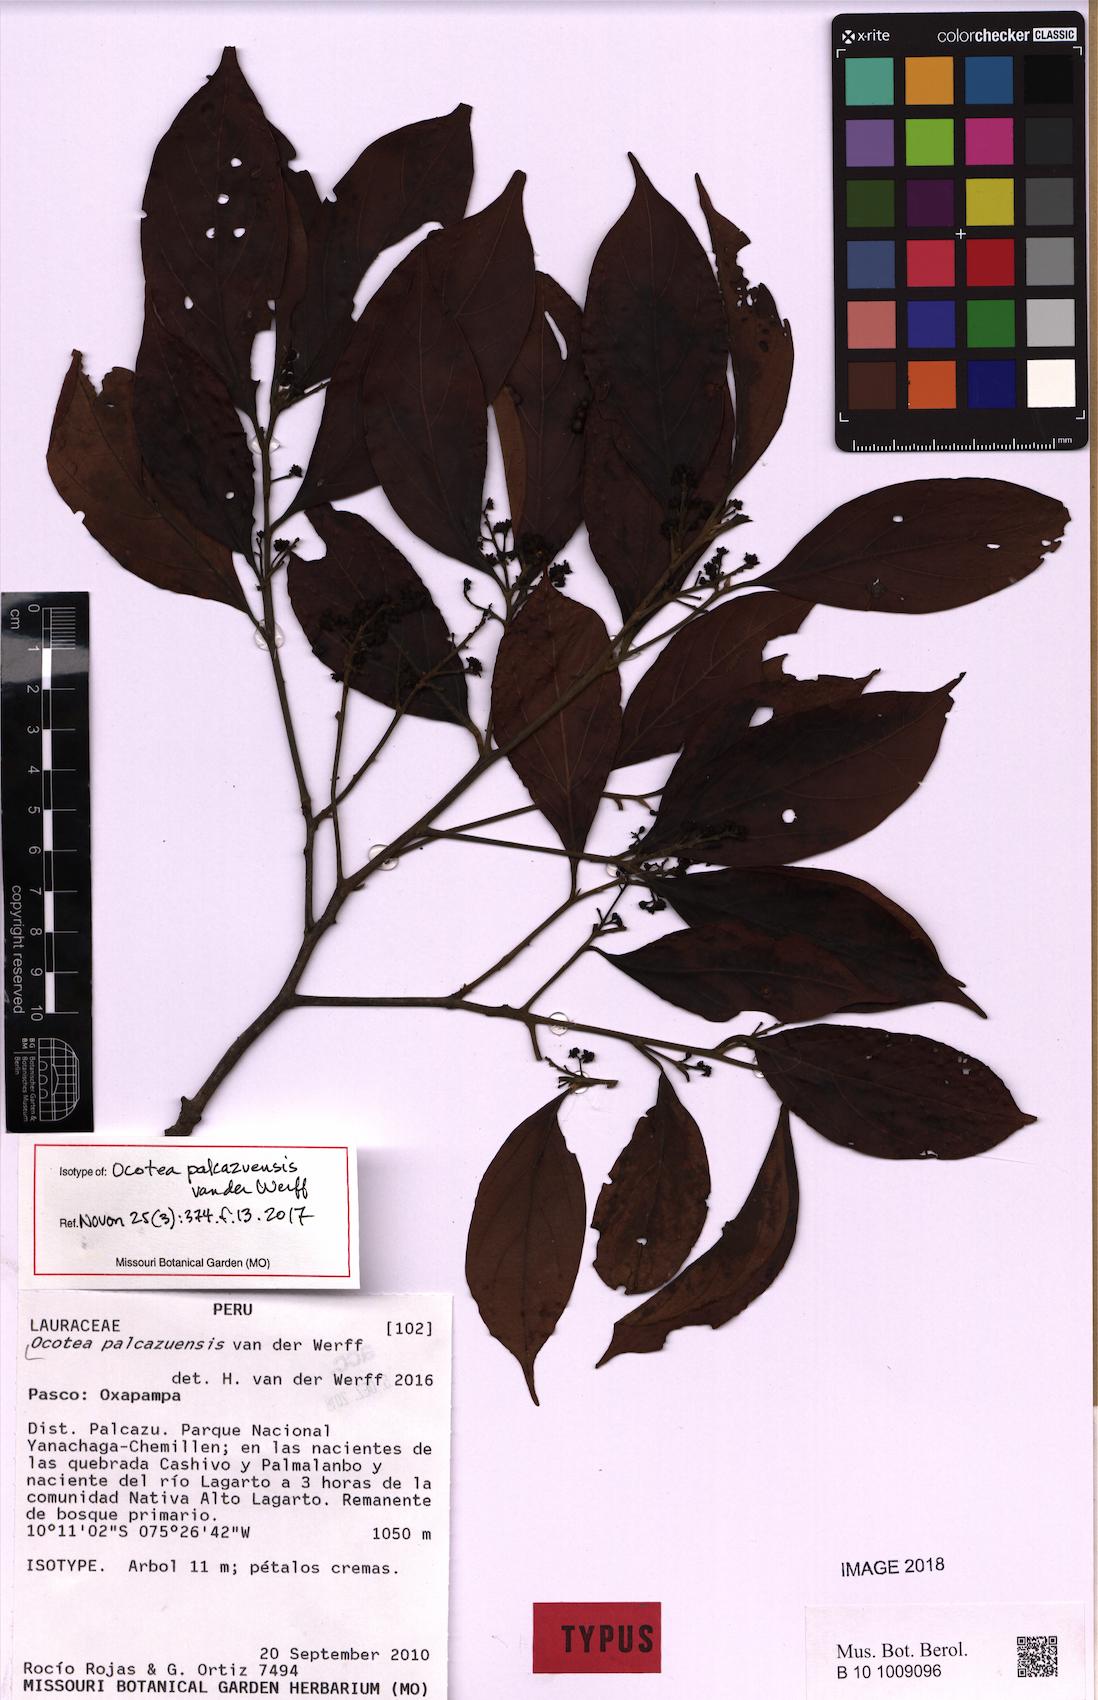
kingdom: Plantae
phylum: Tracheophyta
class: Magnoliopsida
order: Laurales
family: Lauraceae
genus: Ocotea
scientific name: Ocotea palcazuensis
